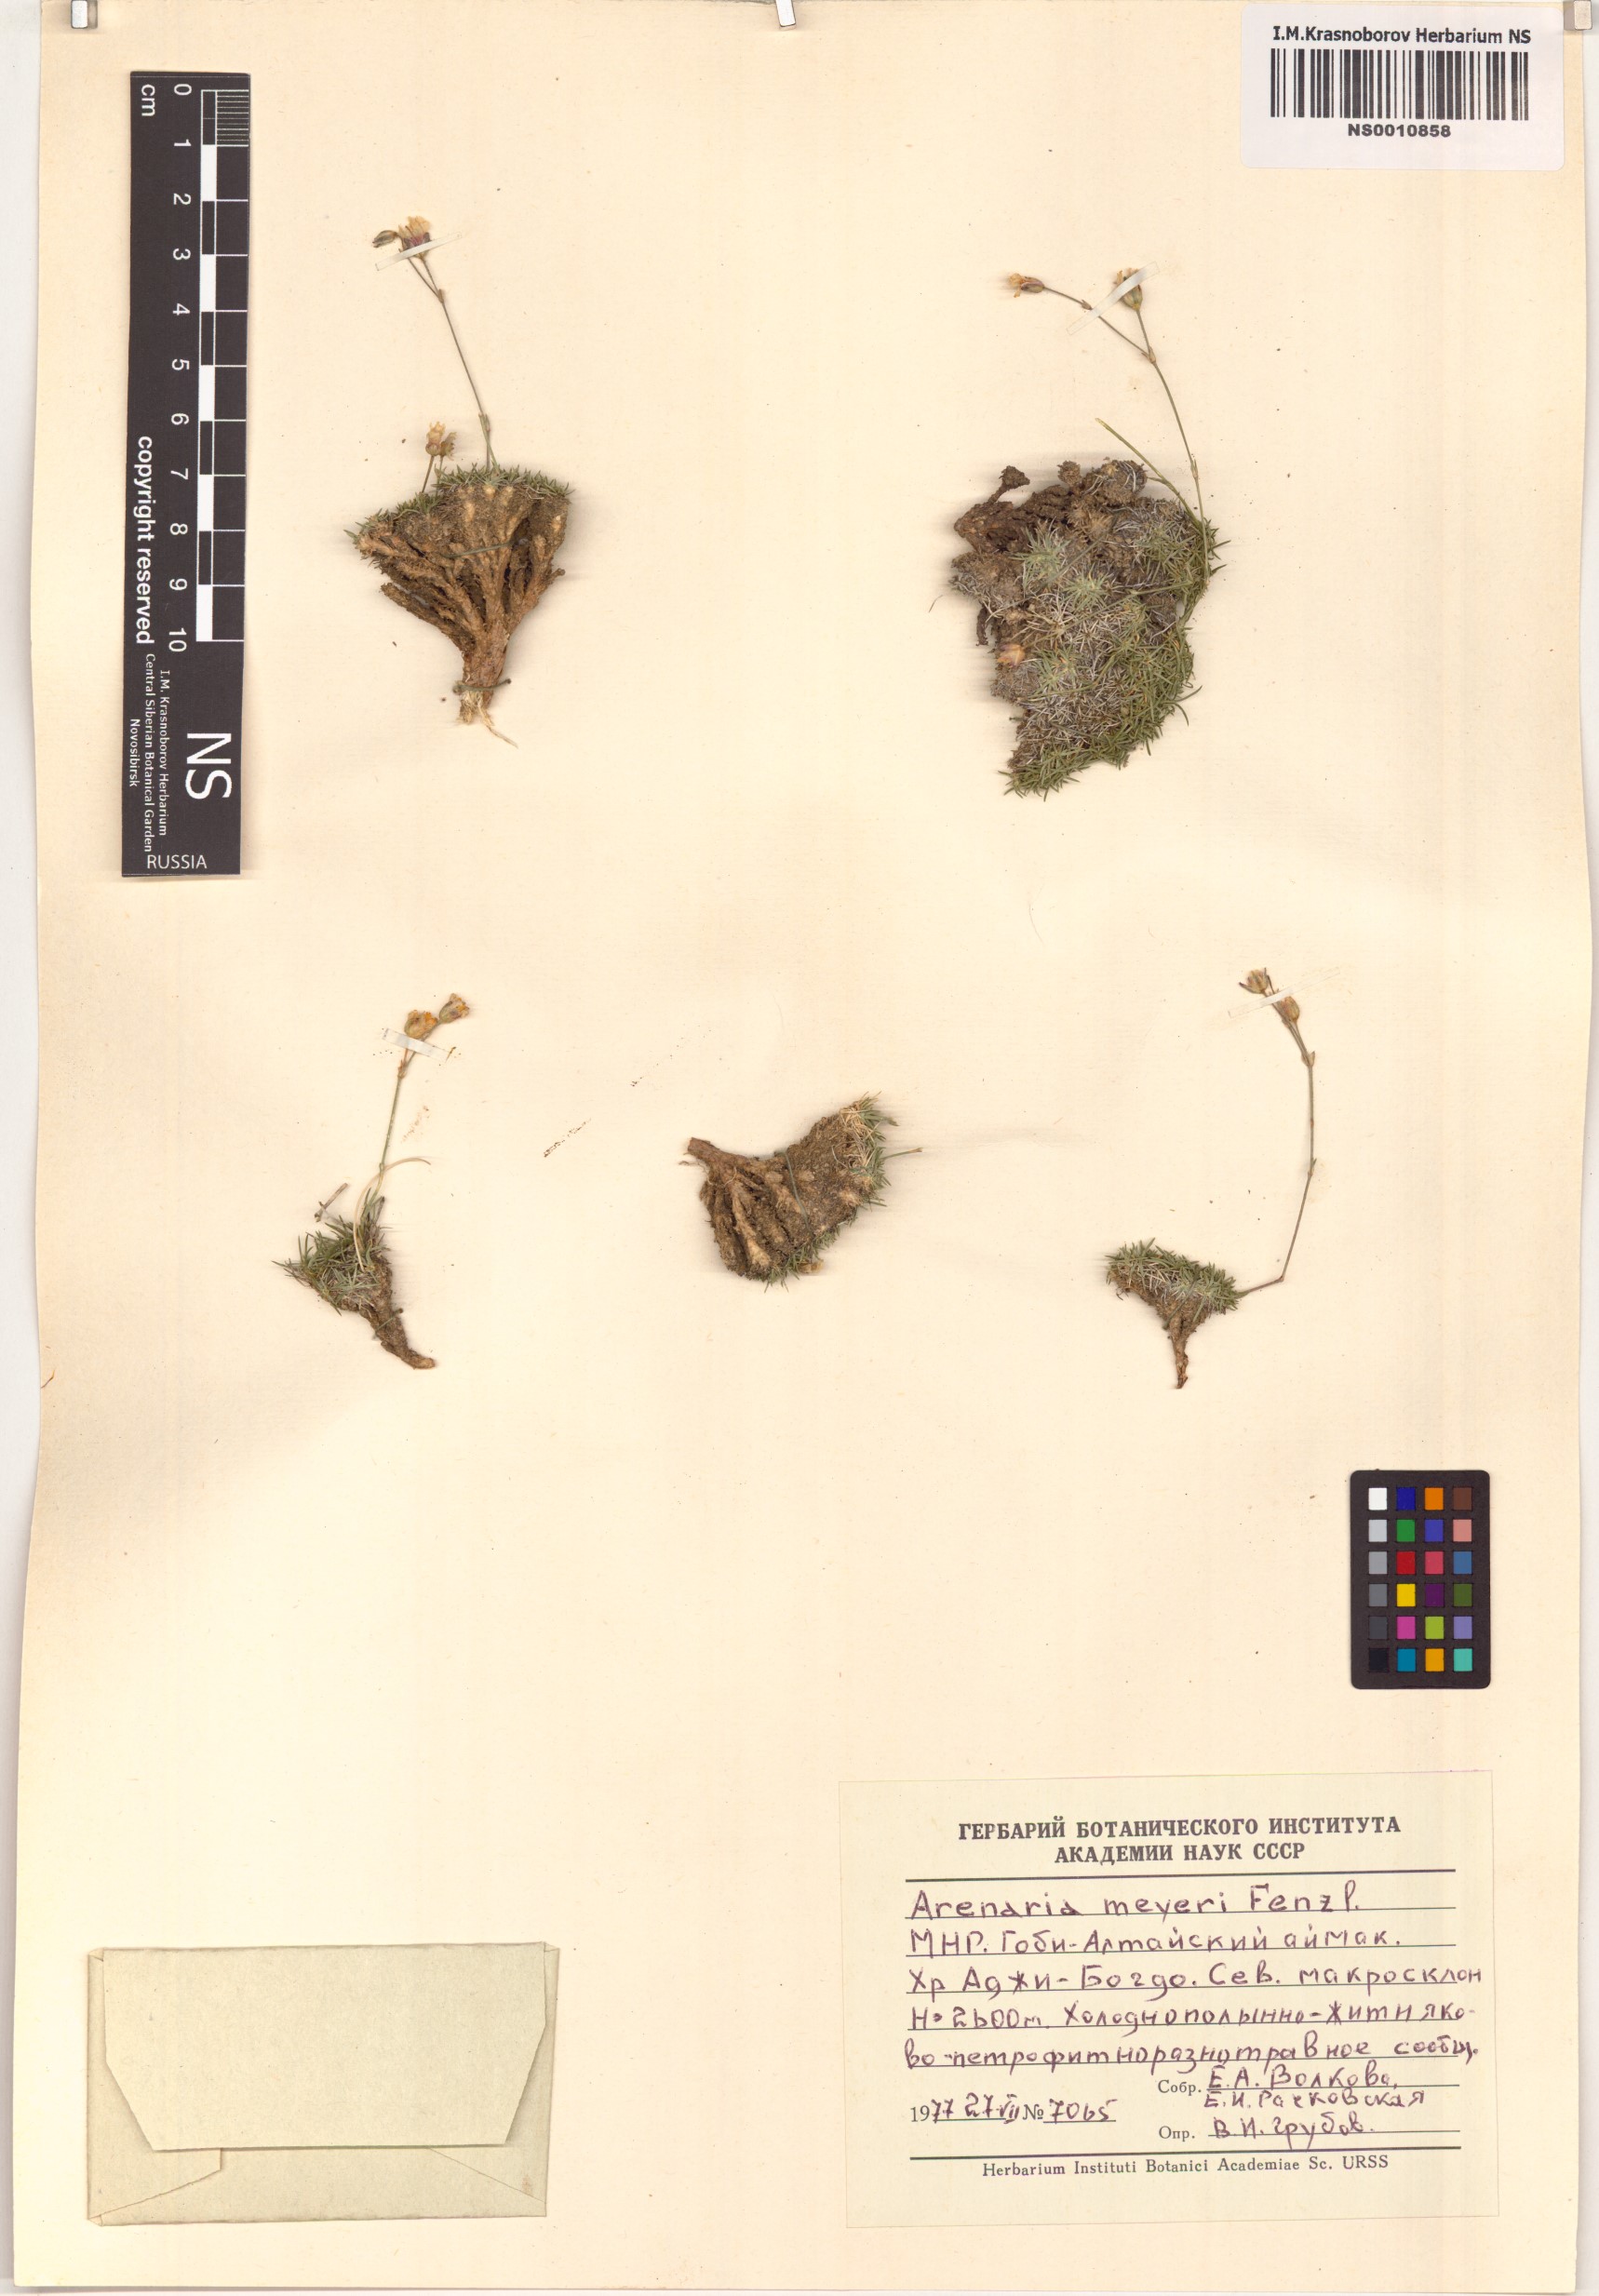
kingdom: Plantae
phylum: Tracheophyta
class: Magnoliopsida
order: Caryophyllales
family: Caryophyllaceae
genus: Eremogone
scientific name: Eremogone meyeri
